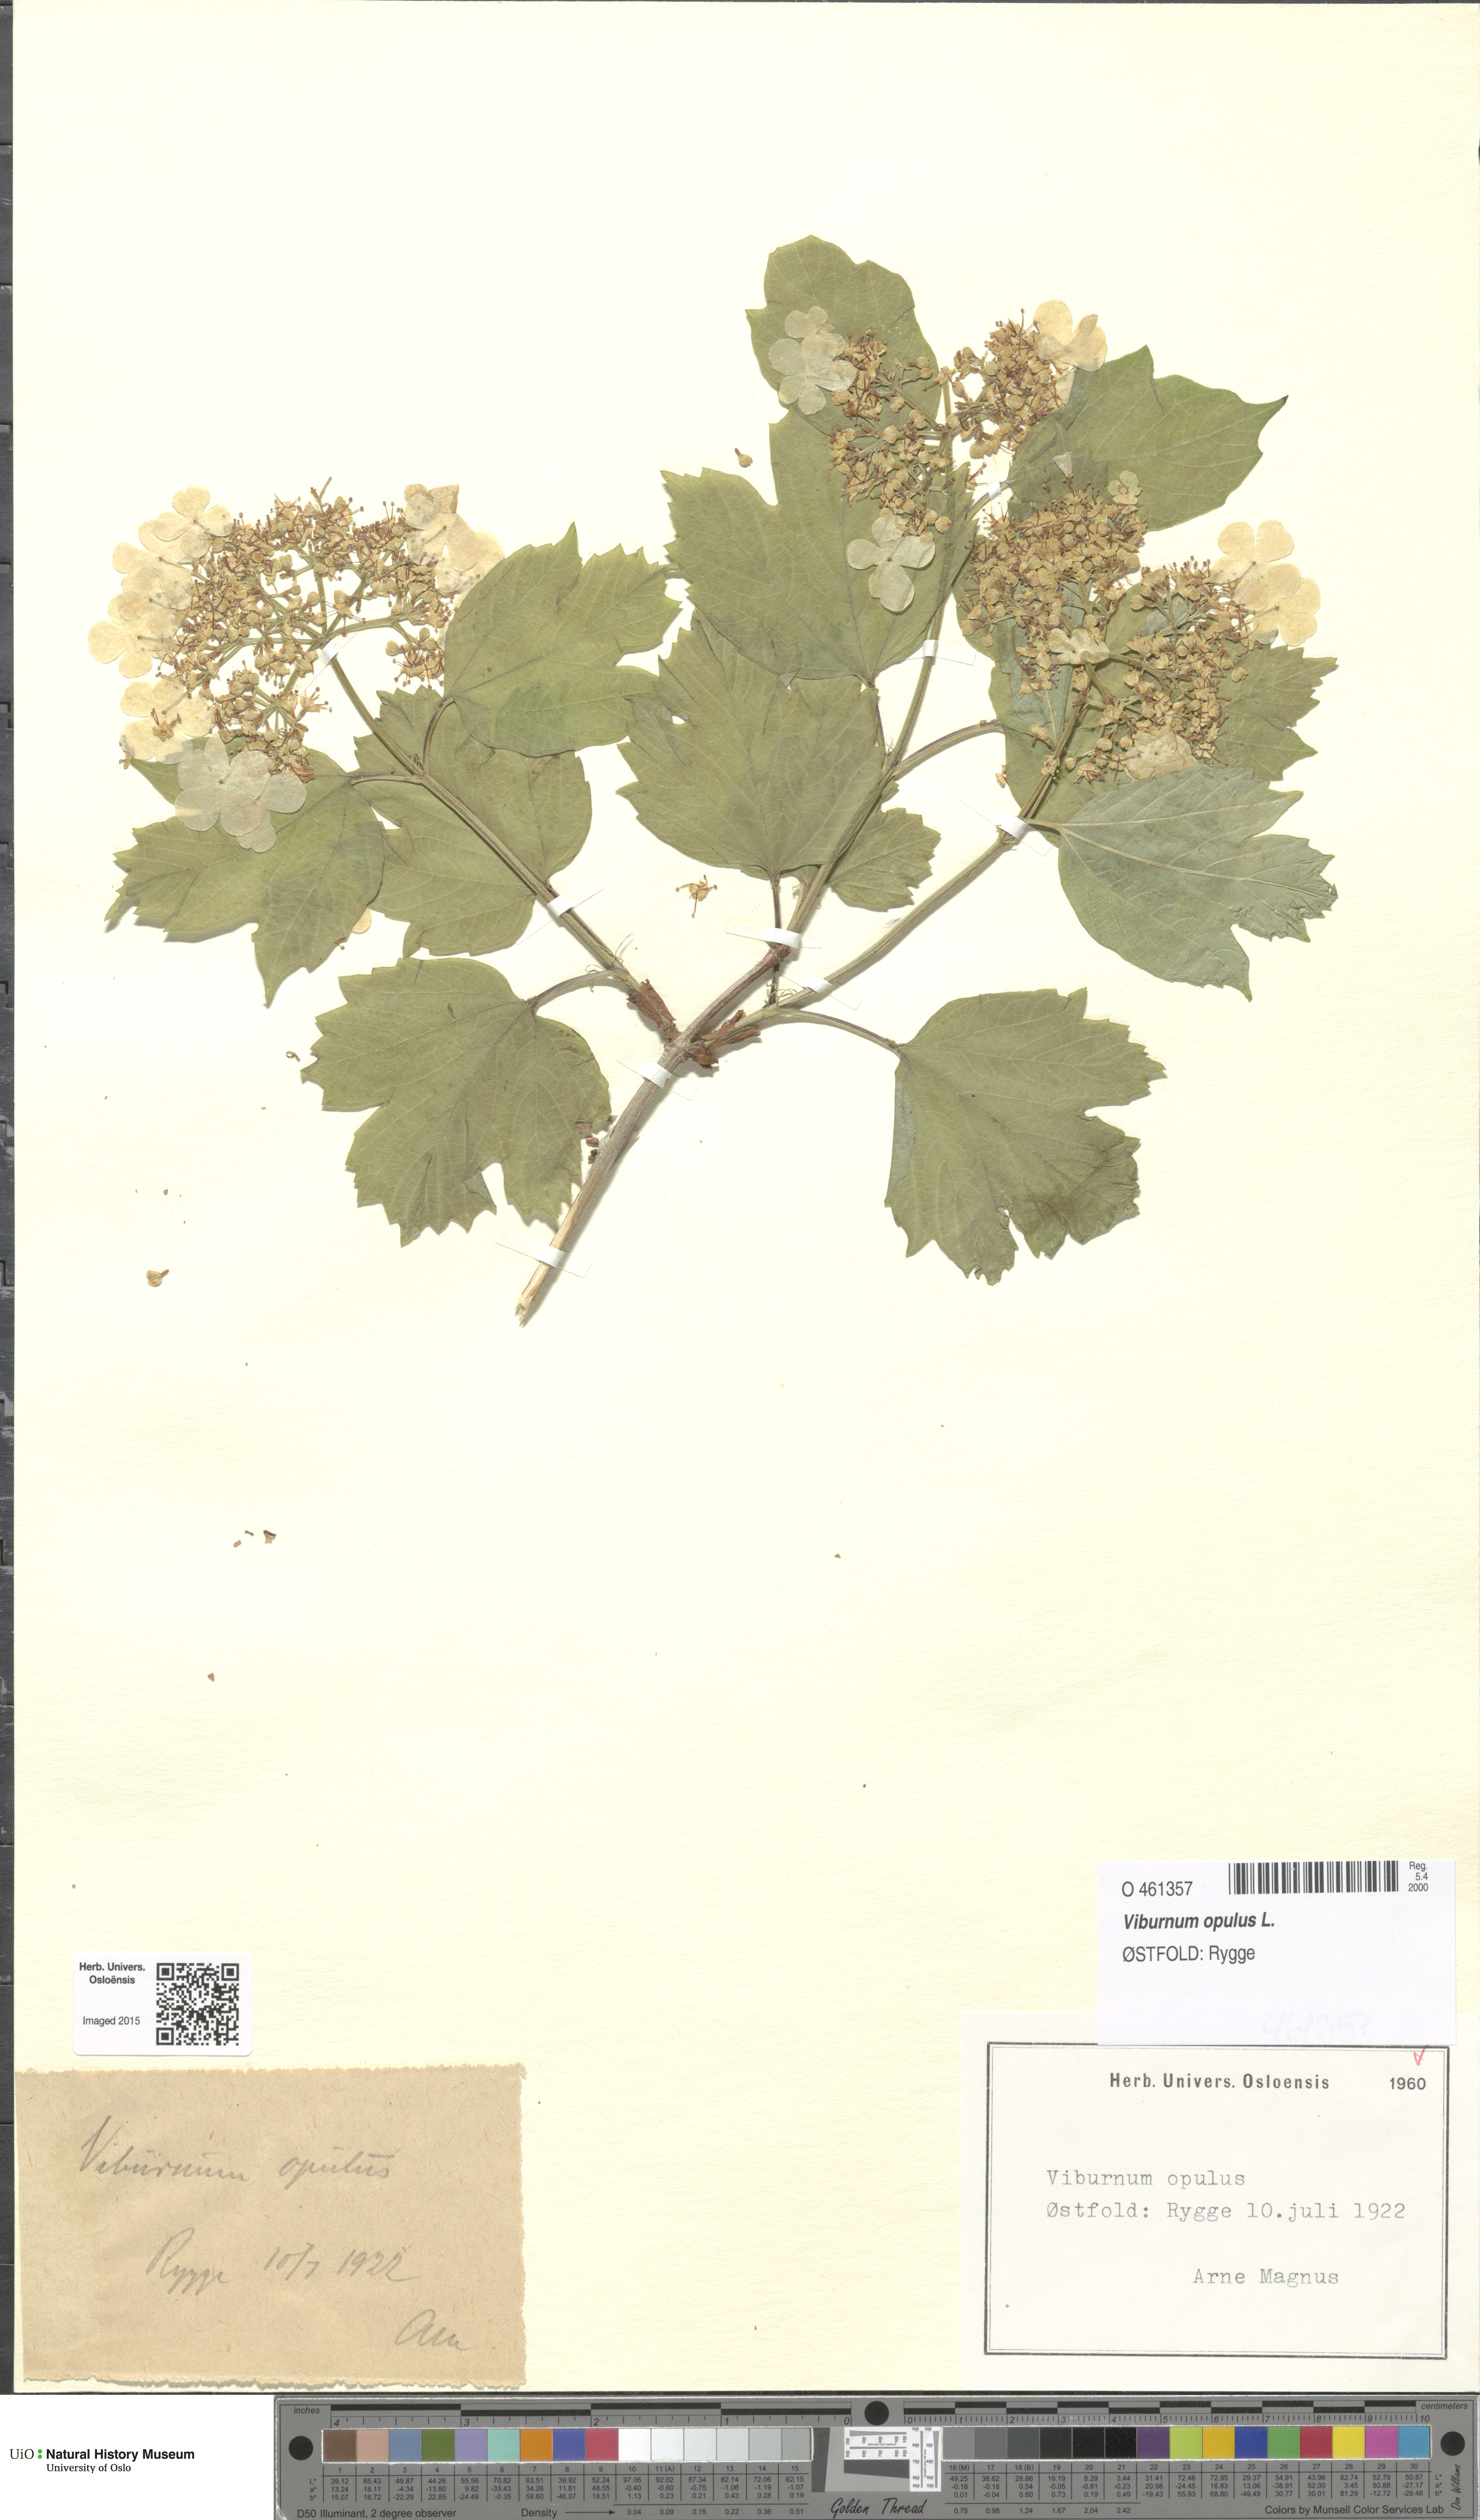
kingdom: Plantae
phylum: Tracheophyta
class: Magnoliopsida
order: Dipsacales
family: Viburnaceae
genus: Viburnum
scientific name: Viburnum opulus
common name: Guelder-rose
